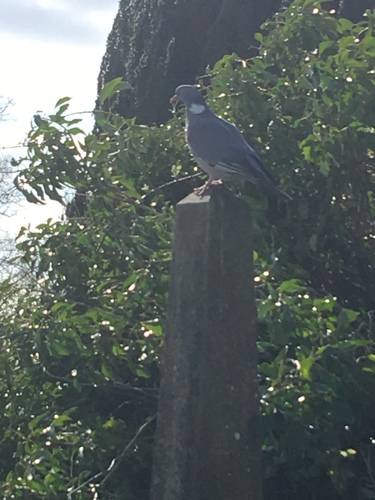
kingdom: Animalia
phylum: Chordata
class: Aves
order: Columbiformes
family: Columbidae
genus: Columba
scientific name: Columba palumbus
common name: Common wood pigeon
